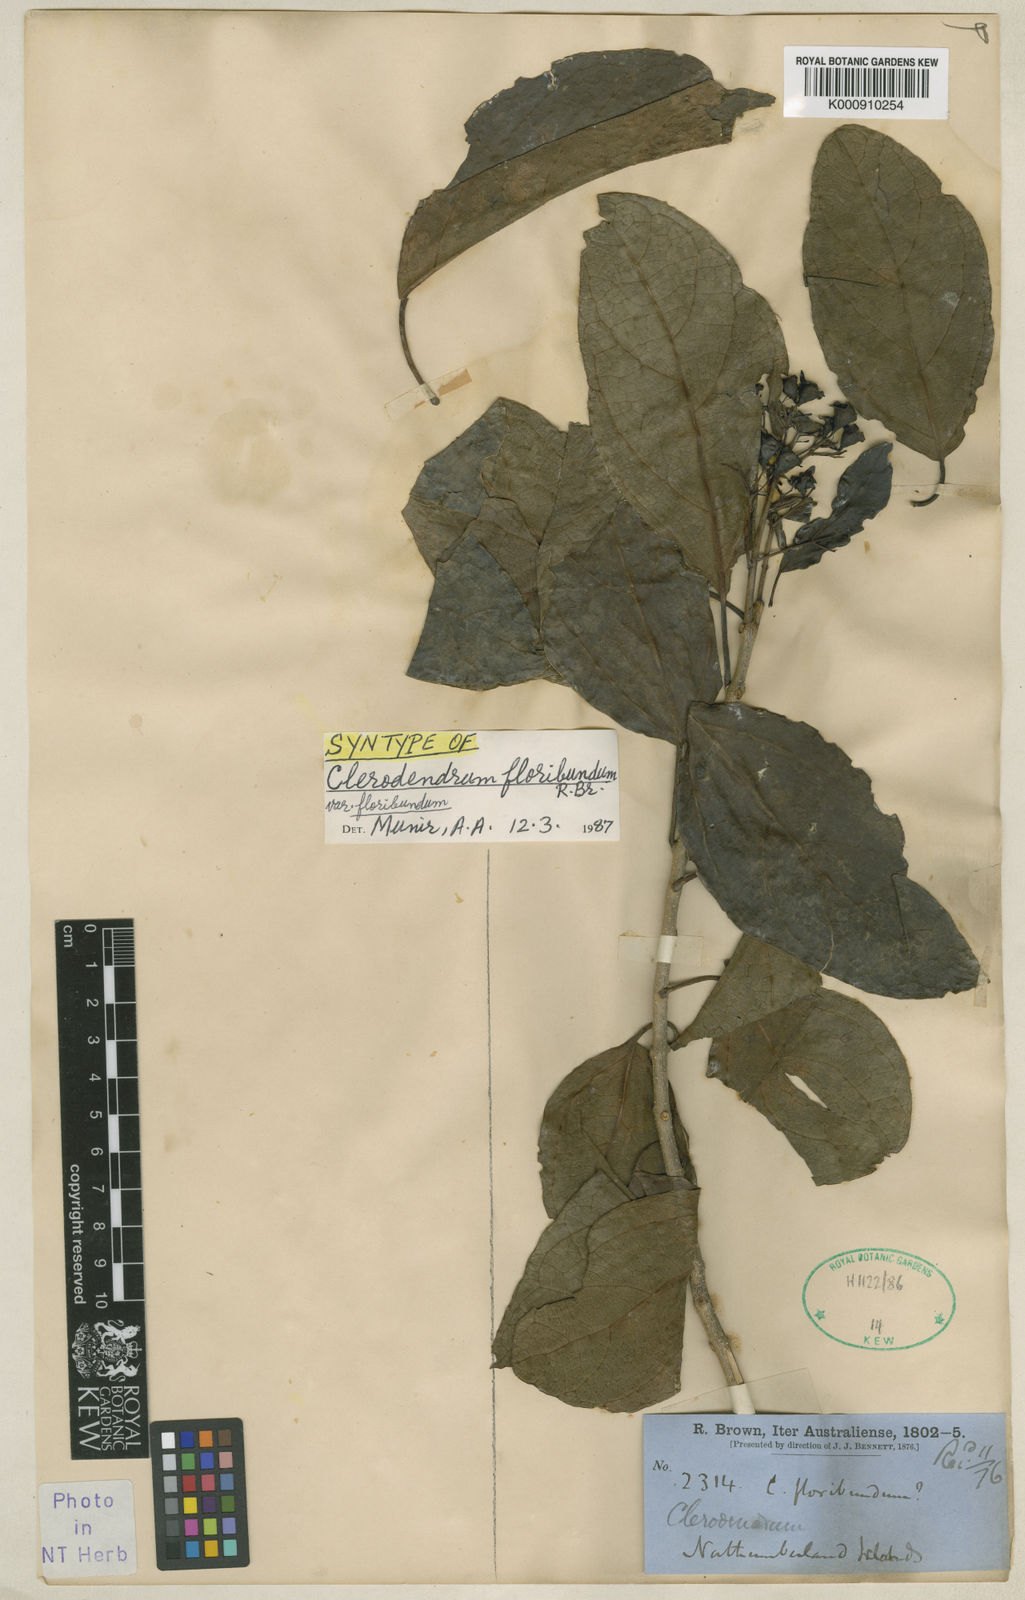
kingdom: Plantae
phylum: Tracheophyta
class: Magnoliopsida
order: Lamiales
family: Lamiaceae
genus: Clerodendrum
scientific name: Clerodendrum floribundum
